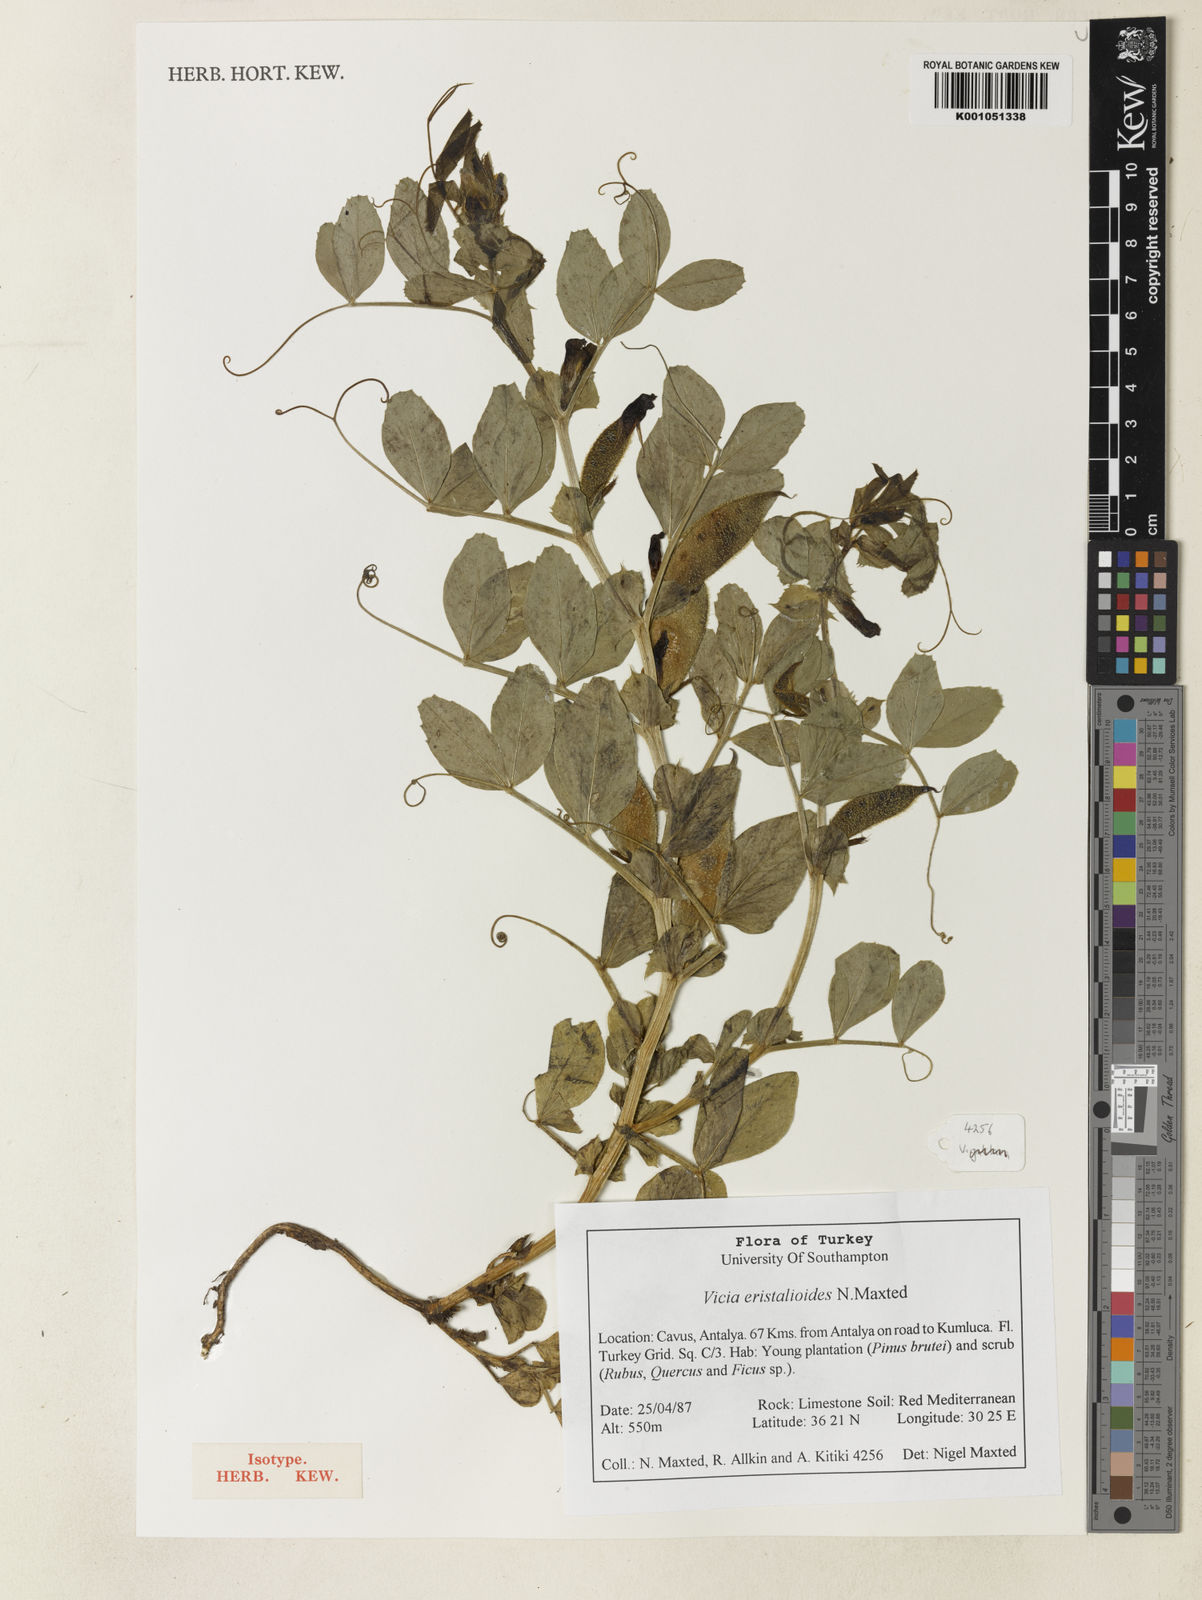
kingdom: Plantae
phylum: Tracheophyta
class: Magnoliopsida
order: Fabales
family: Fabaceae
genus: Vicia
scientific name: Vicia eristalioides
